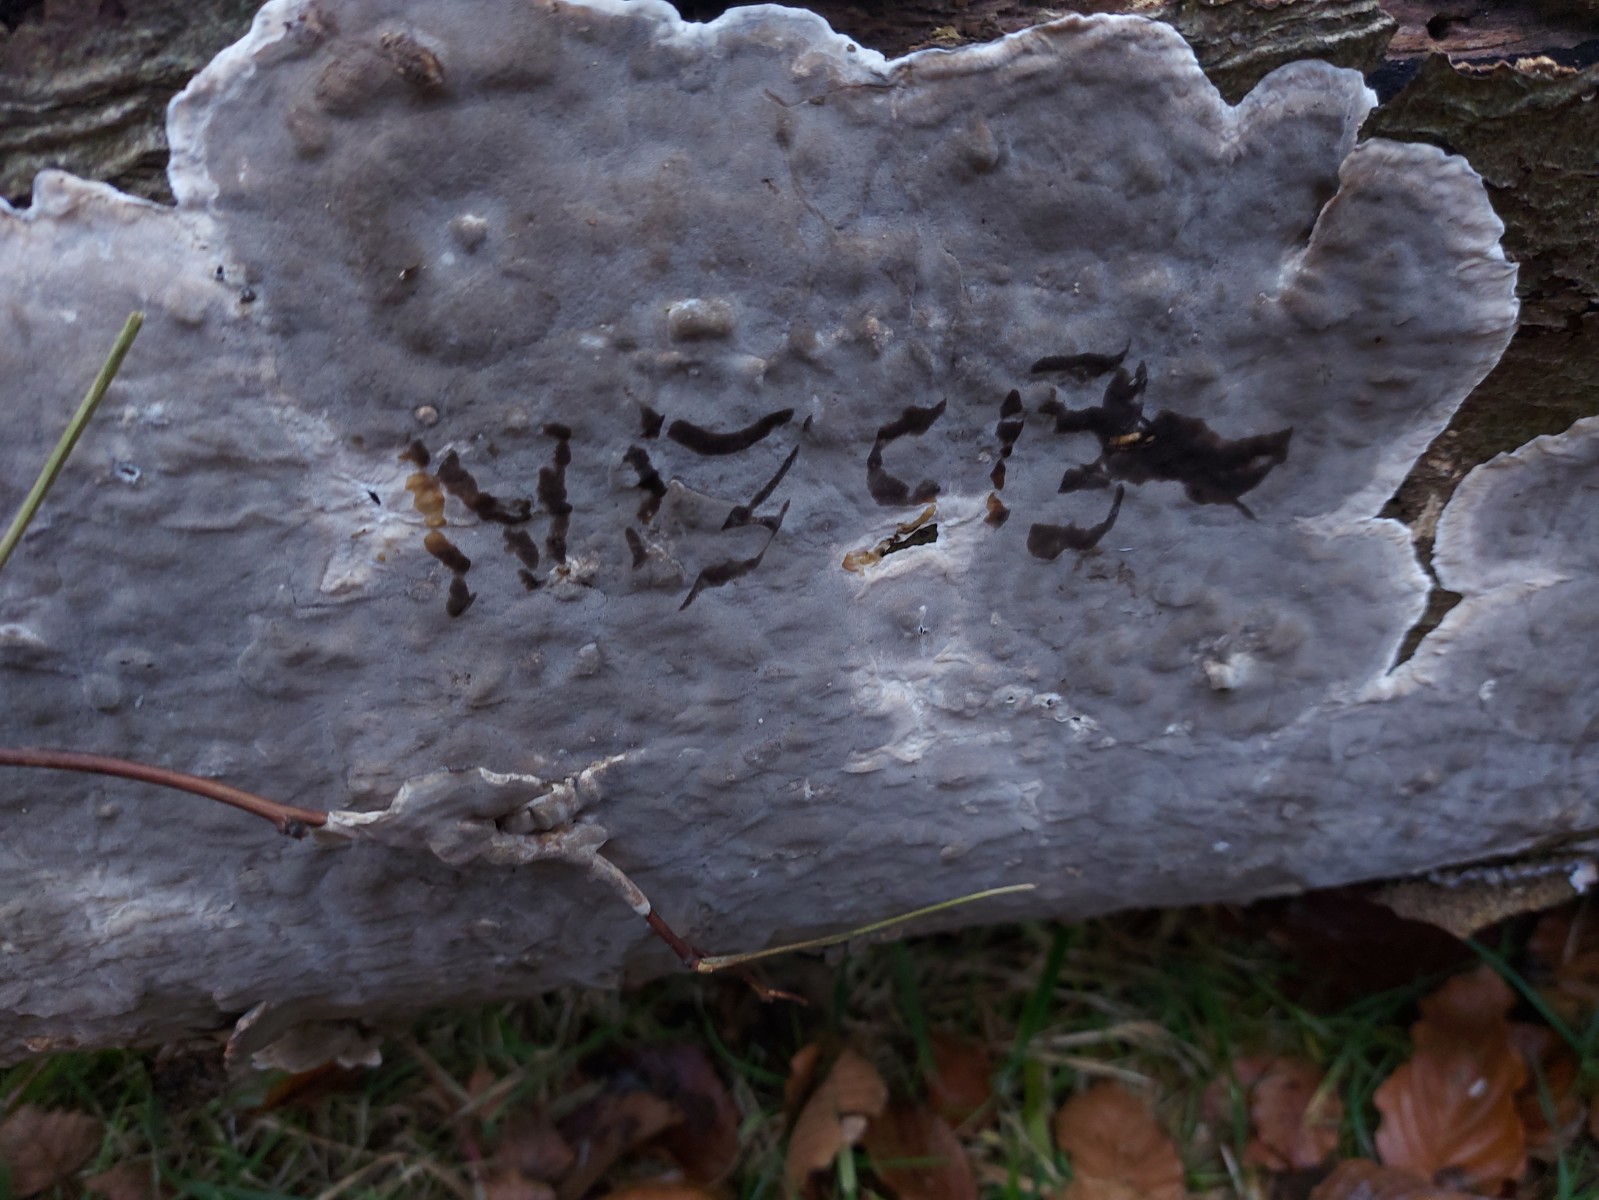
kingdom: Fungi
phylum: Basidiomycota
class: Agaricomycetes
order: Polyporales
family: Phanerochaetaceae
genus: Bjerkandera
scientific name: Bjerkandera adusta
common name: sveden sodporesvamp
